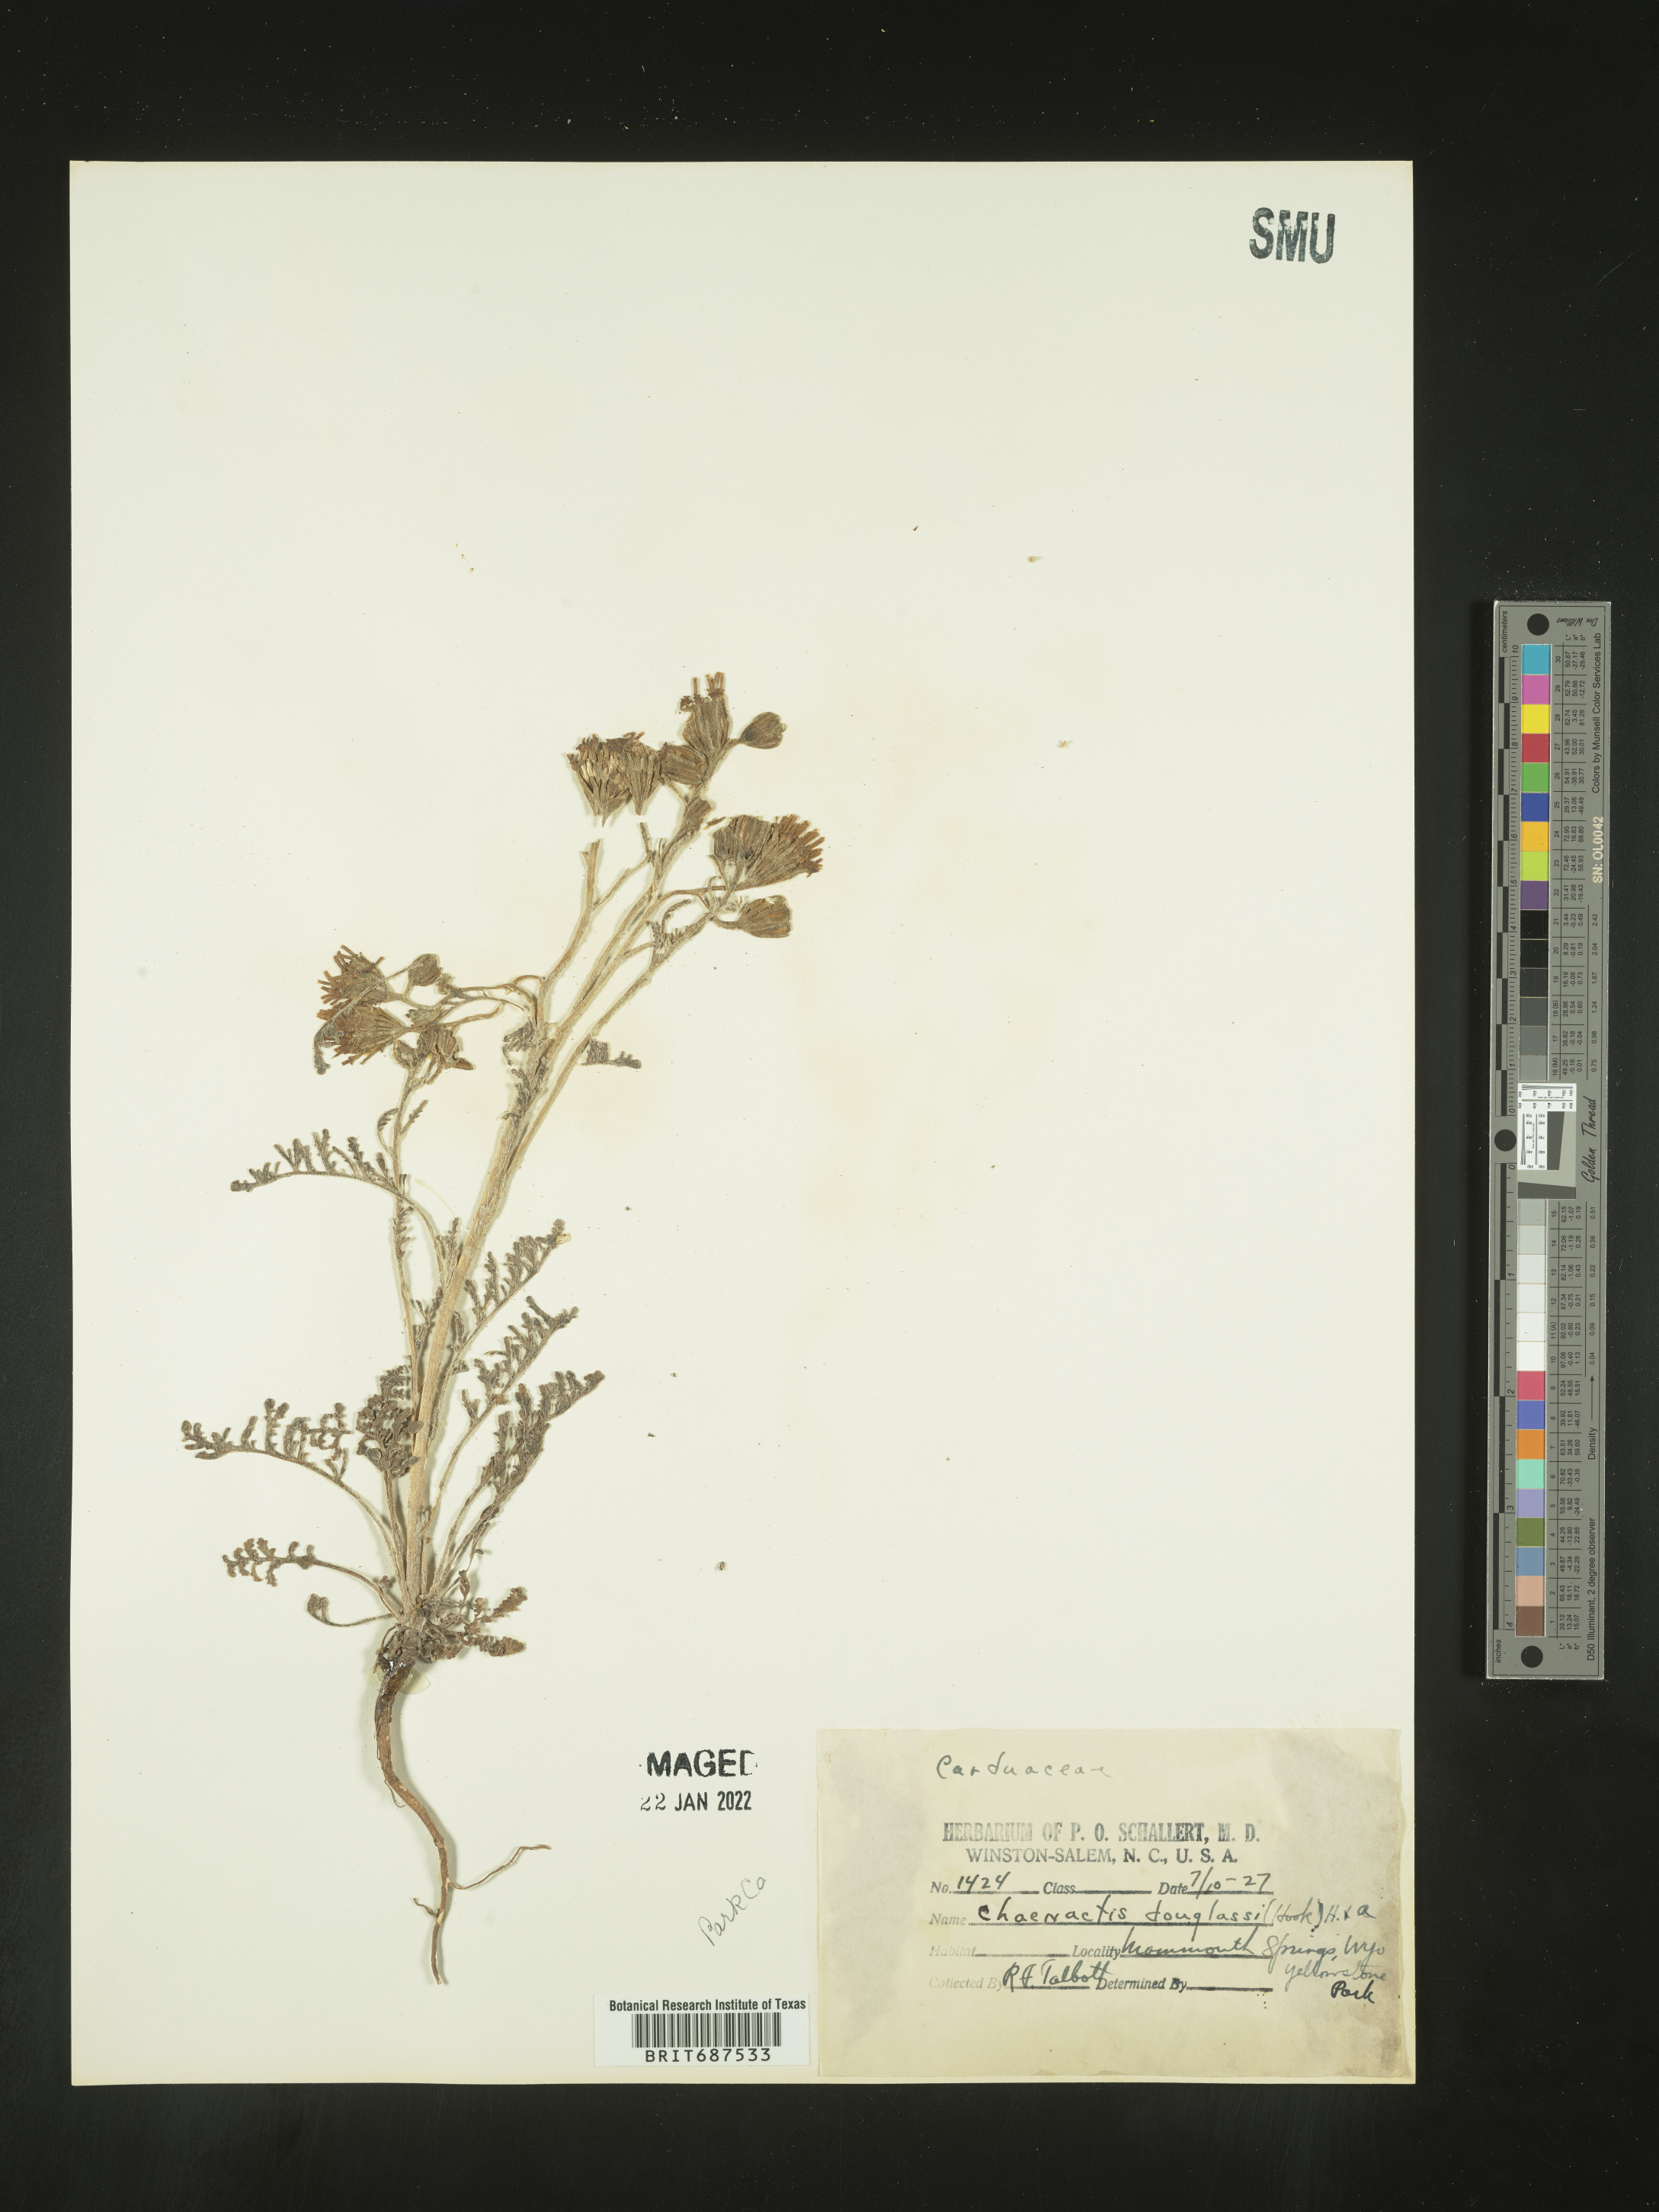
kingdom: Plantae
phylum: Tracheophyta
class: Magnoliopsida
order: Asterales
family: Asteraceae
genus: Chaenactis
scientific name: Chaenactis douglasii
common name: Hoary pincushion
